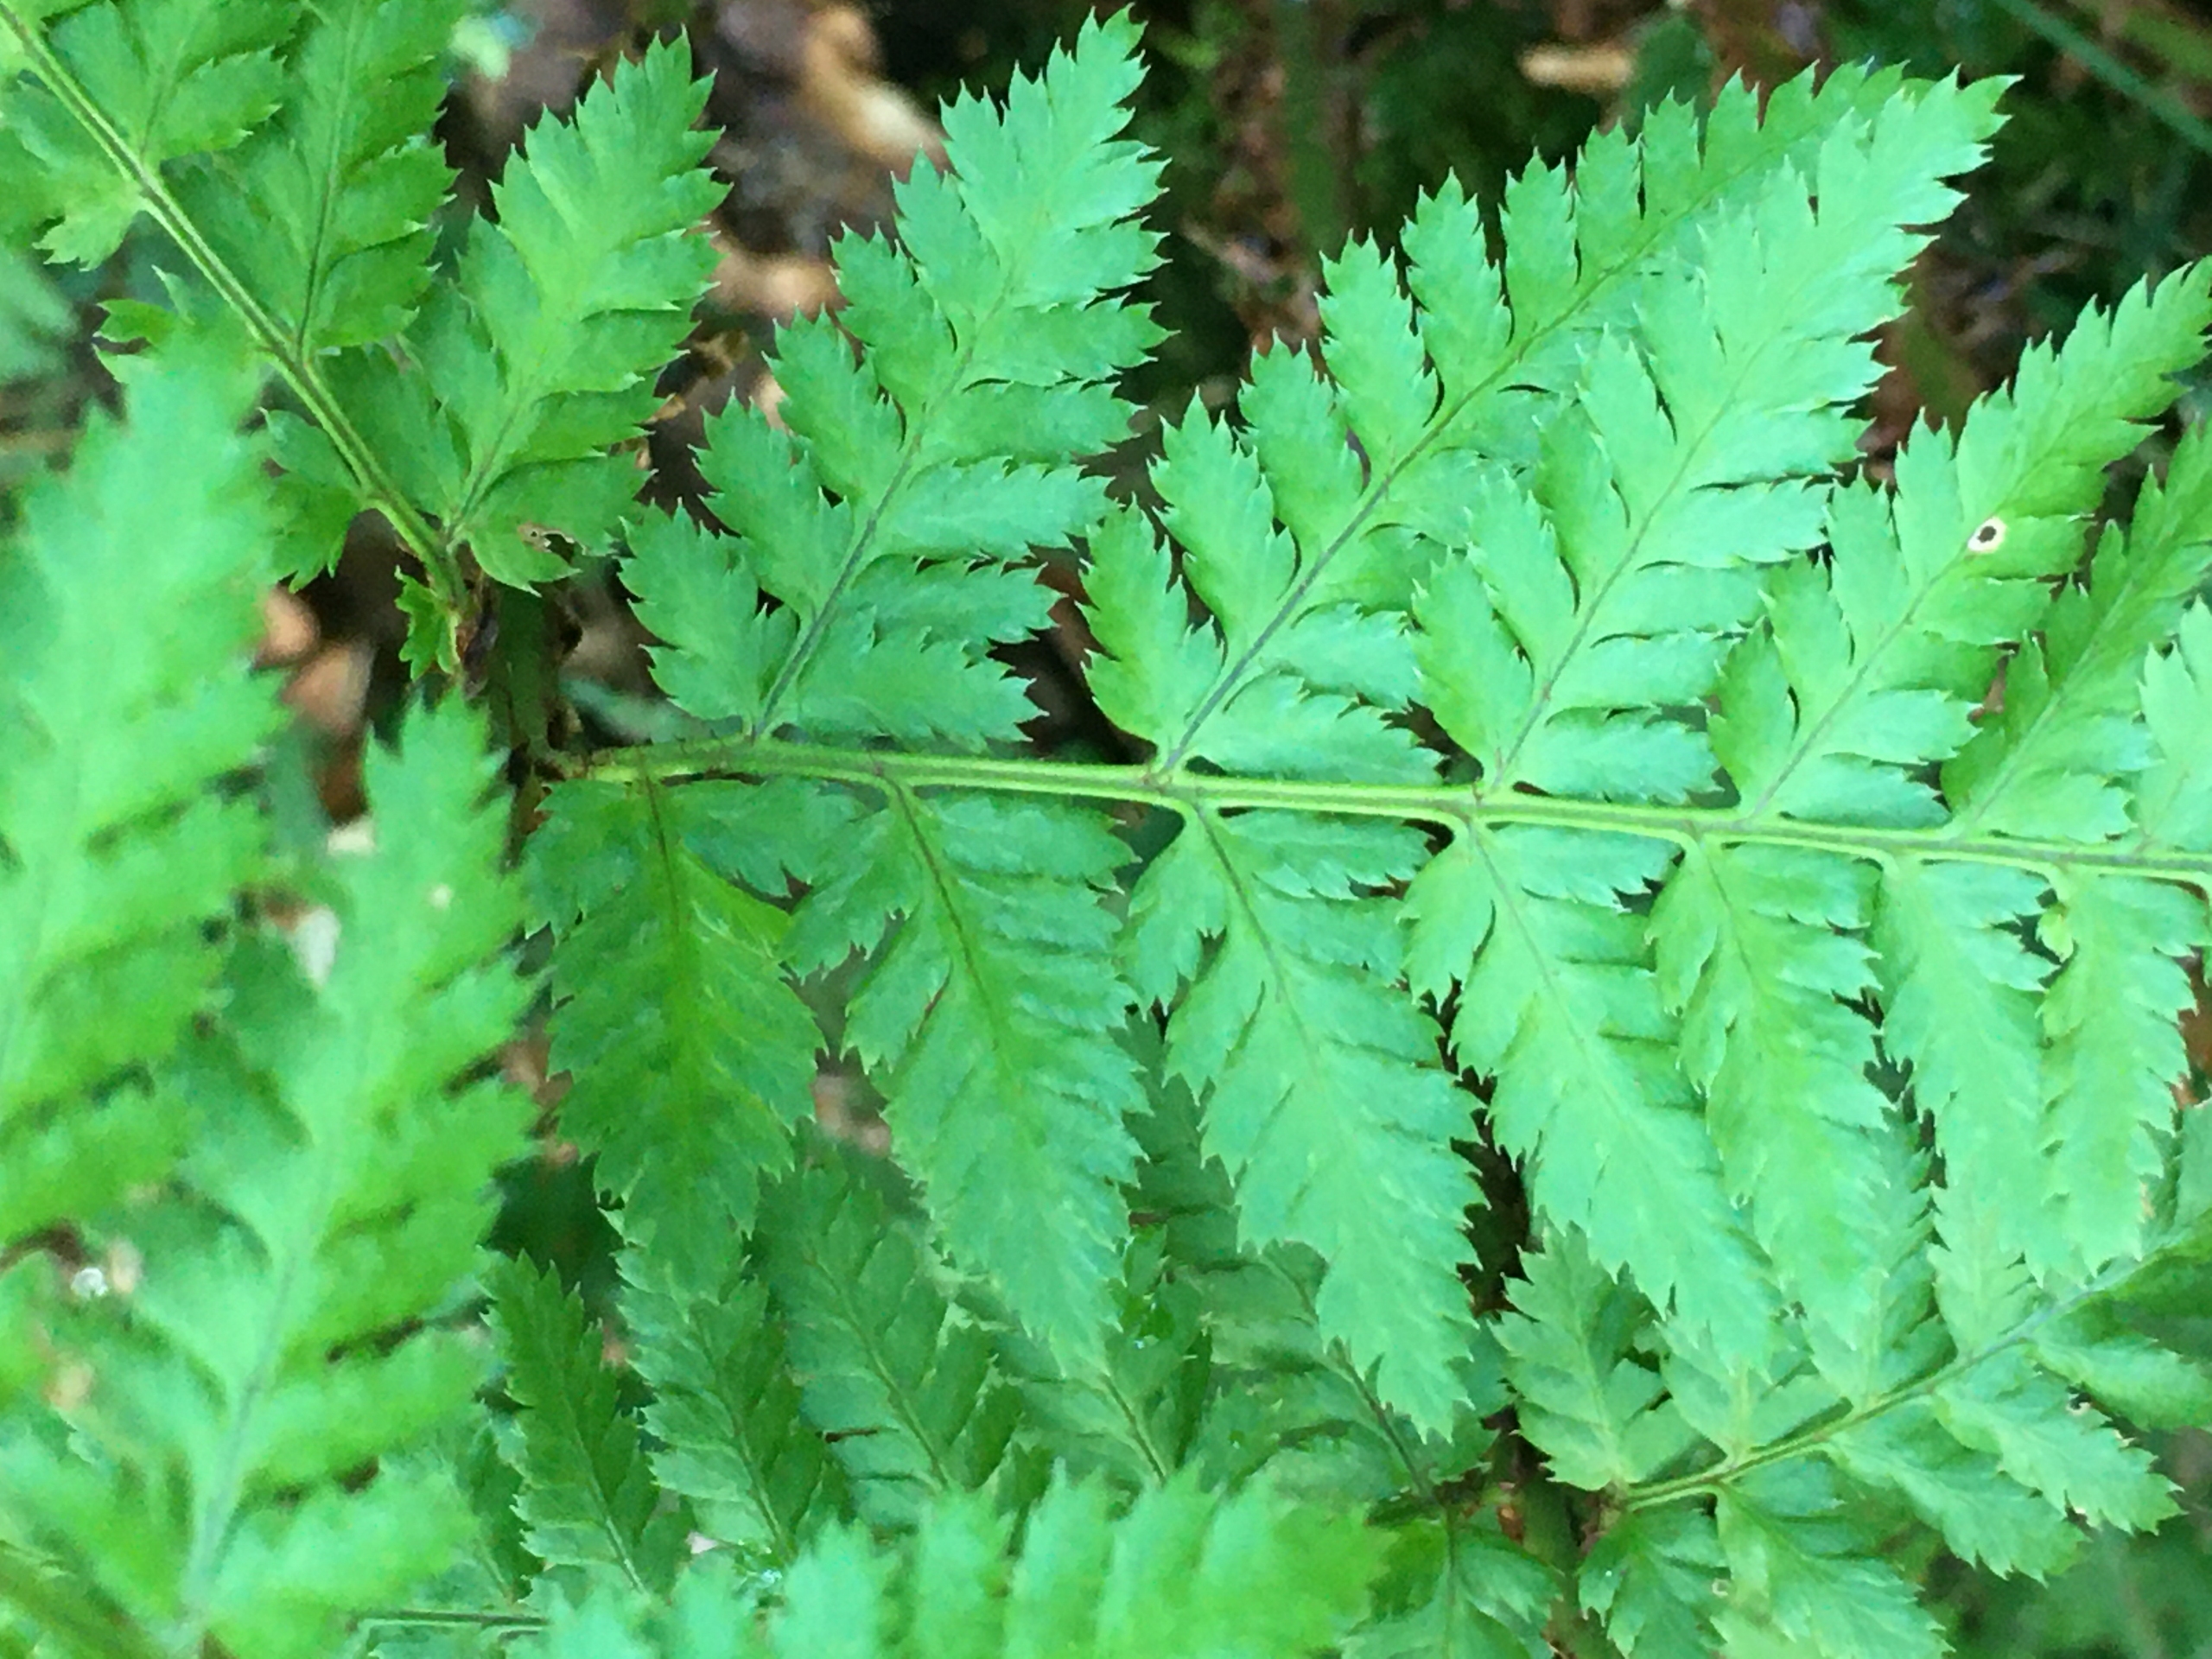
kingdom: Plantae
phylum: Tracheophyta
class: Polypodiopsida
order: Polypodiales
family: Dryopteridaceae
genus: Dryopteris
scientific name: Dryopteris dilatata
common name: Bredbladet mangeløv
